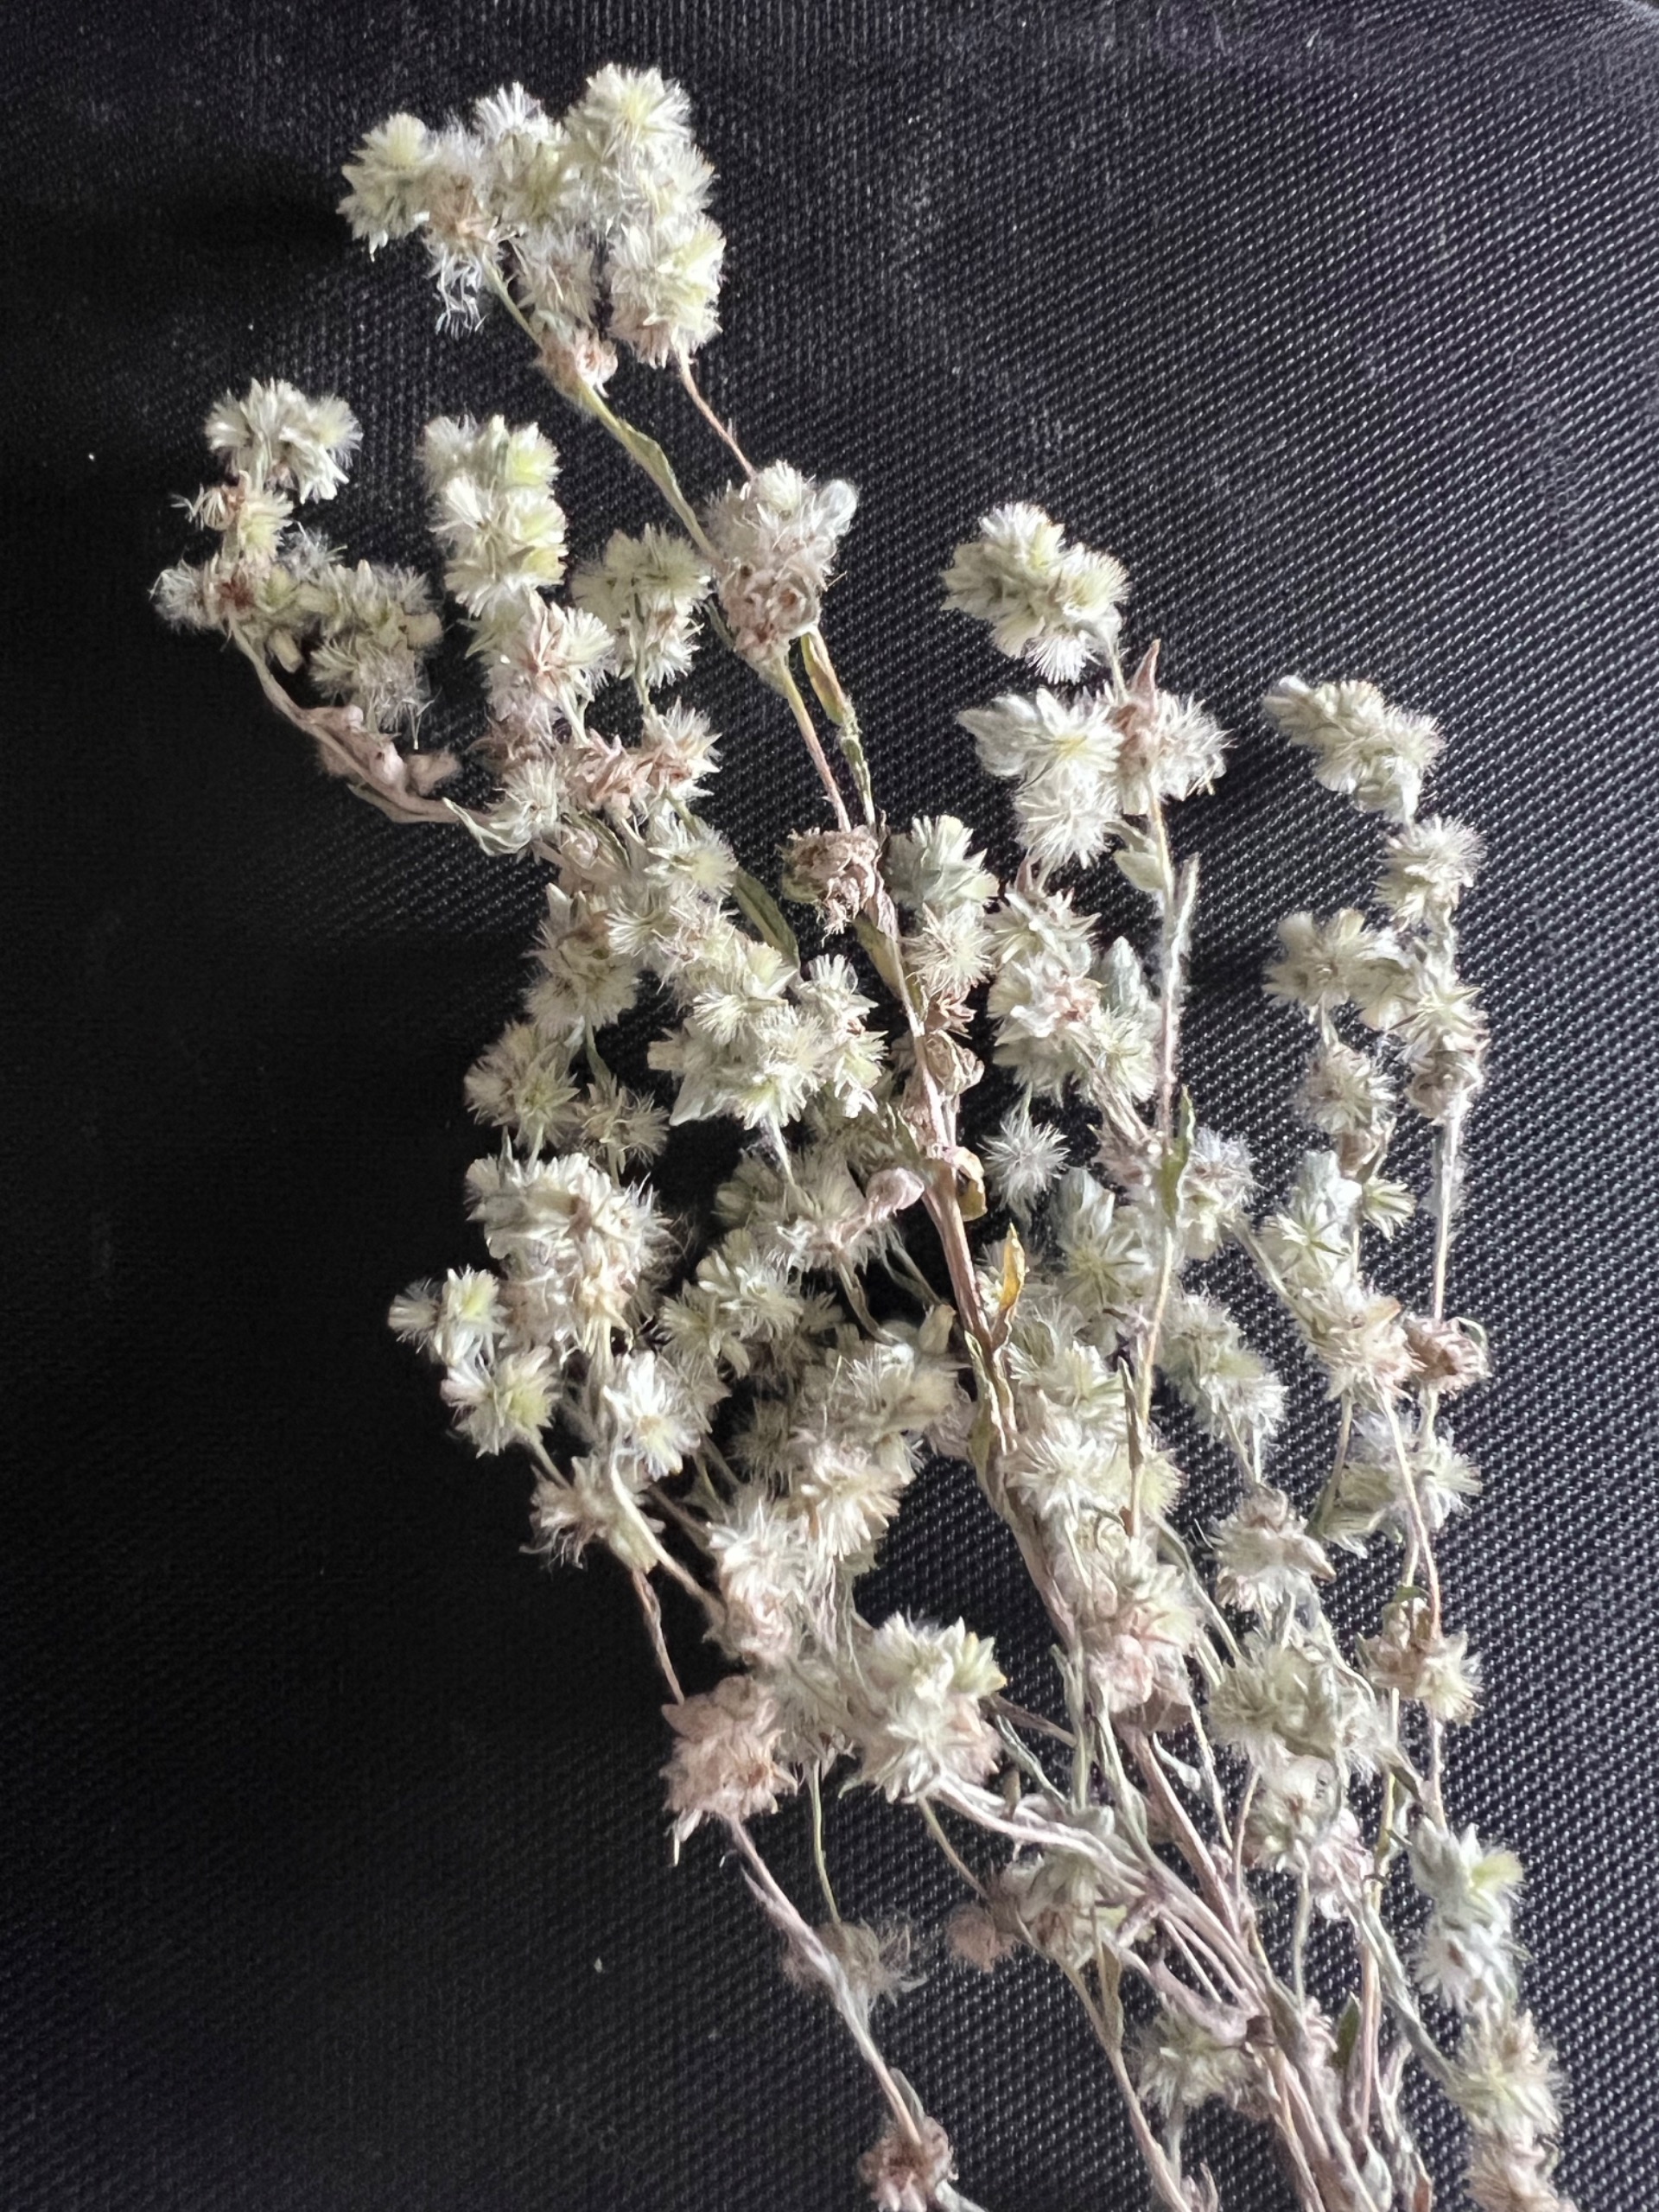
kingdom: Plantae
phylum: Tracheophyta
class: Magnoliopsida
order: Asterales
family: Asteraceae
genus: Filago
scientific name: Filago arvensis
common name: Ager-museurt
